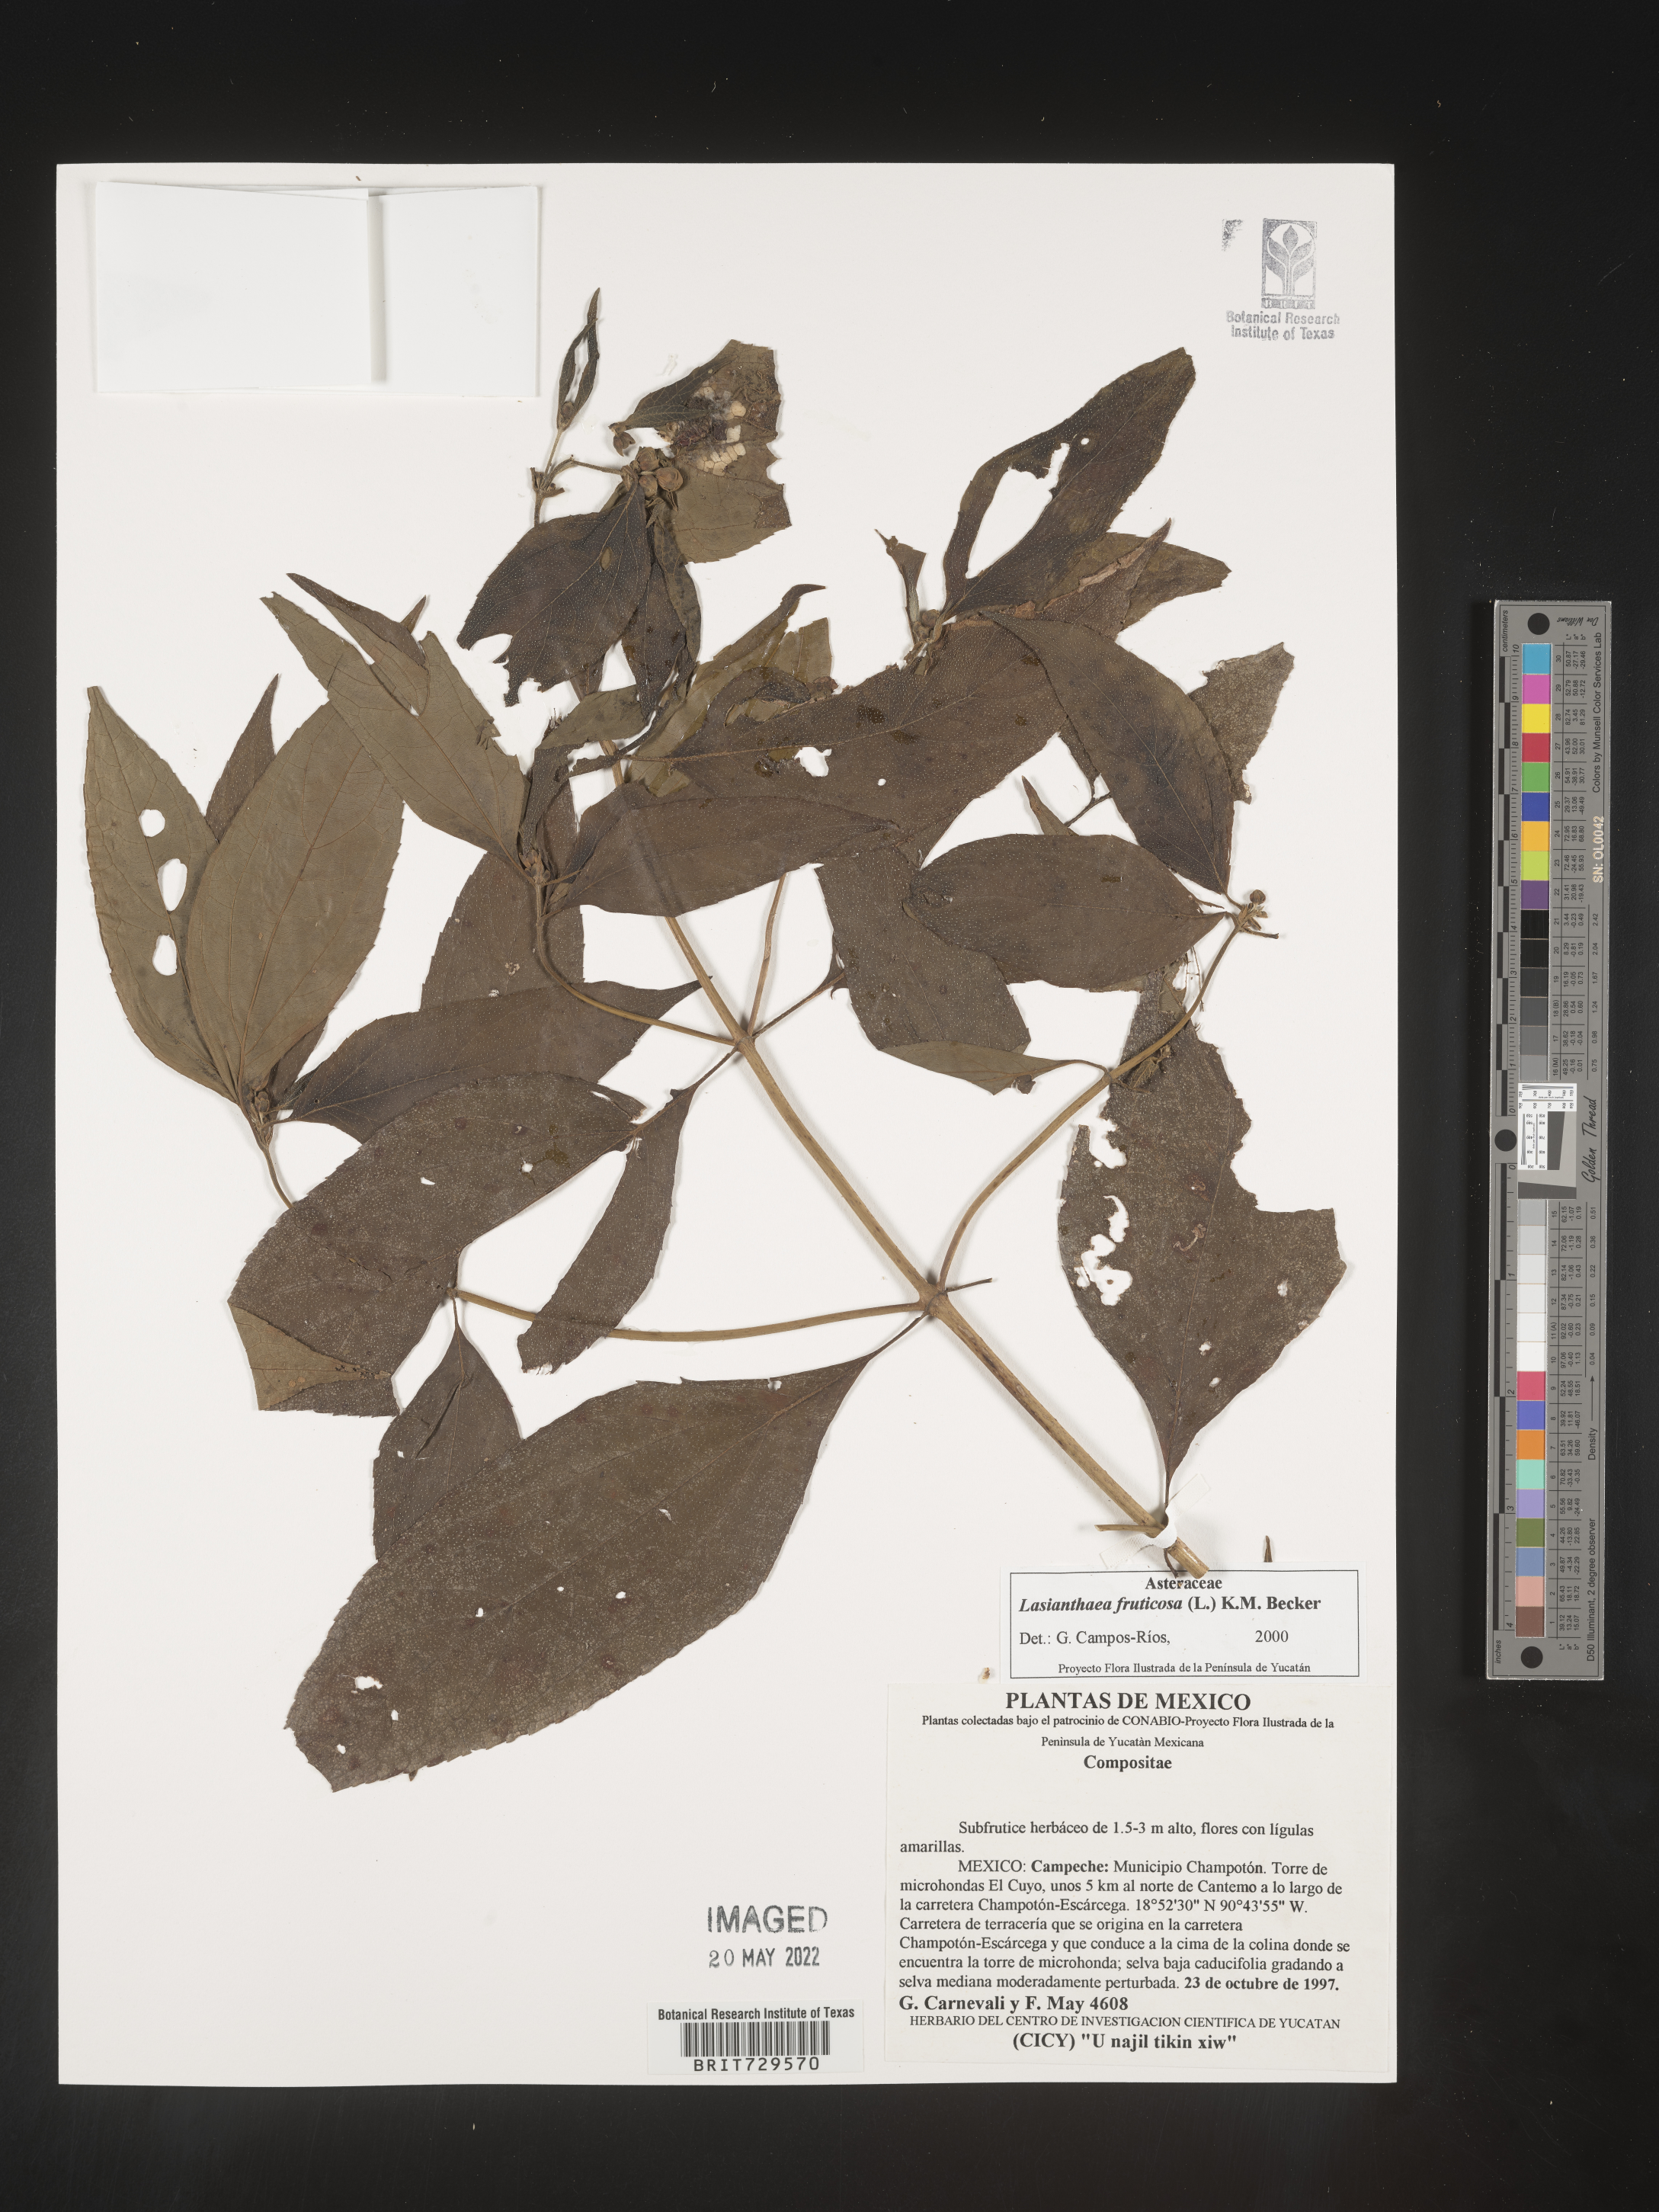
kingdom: Plantae
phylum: Tracheophyta
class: Magnoliopsida
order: Asterales
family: Asteraceae
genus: Lasianthaea
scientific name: Lasianthaea
